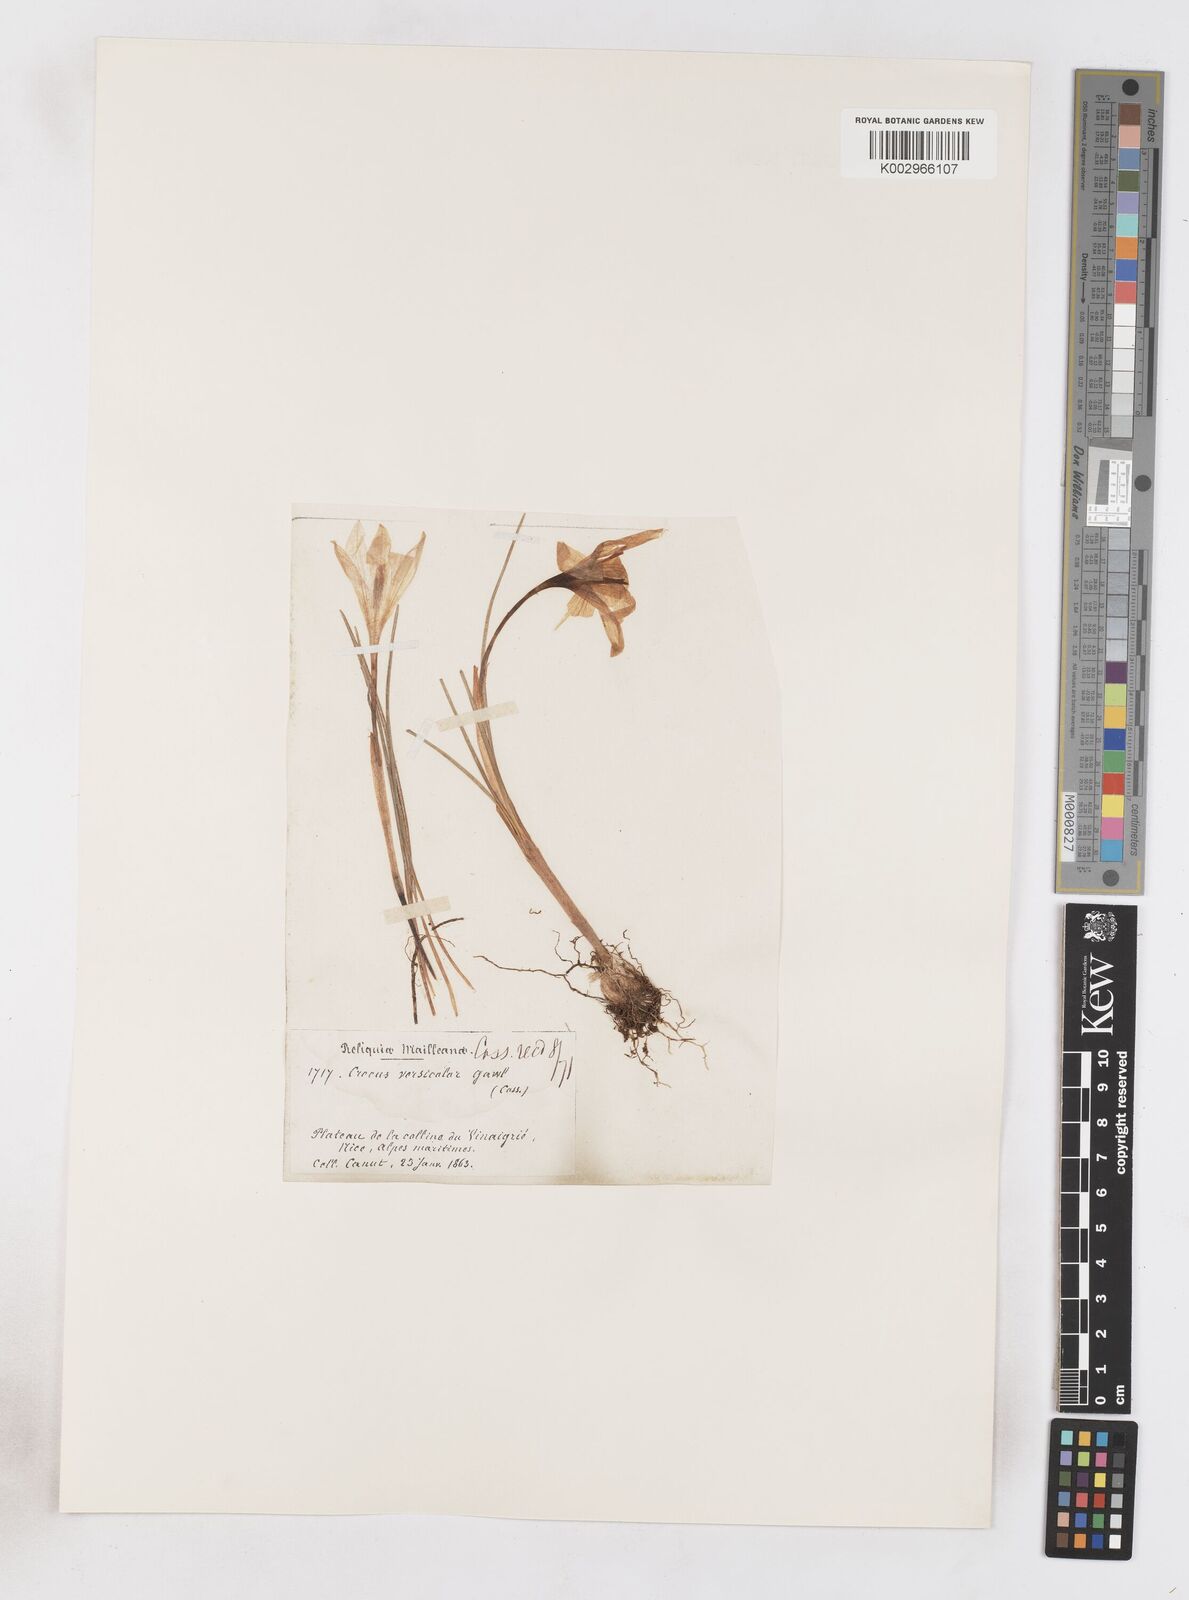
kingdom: Plantae
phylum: Tracheophyta
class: Liliopsida
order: Asparagales
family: Iridaceae
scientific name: Iridaceae
